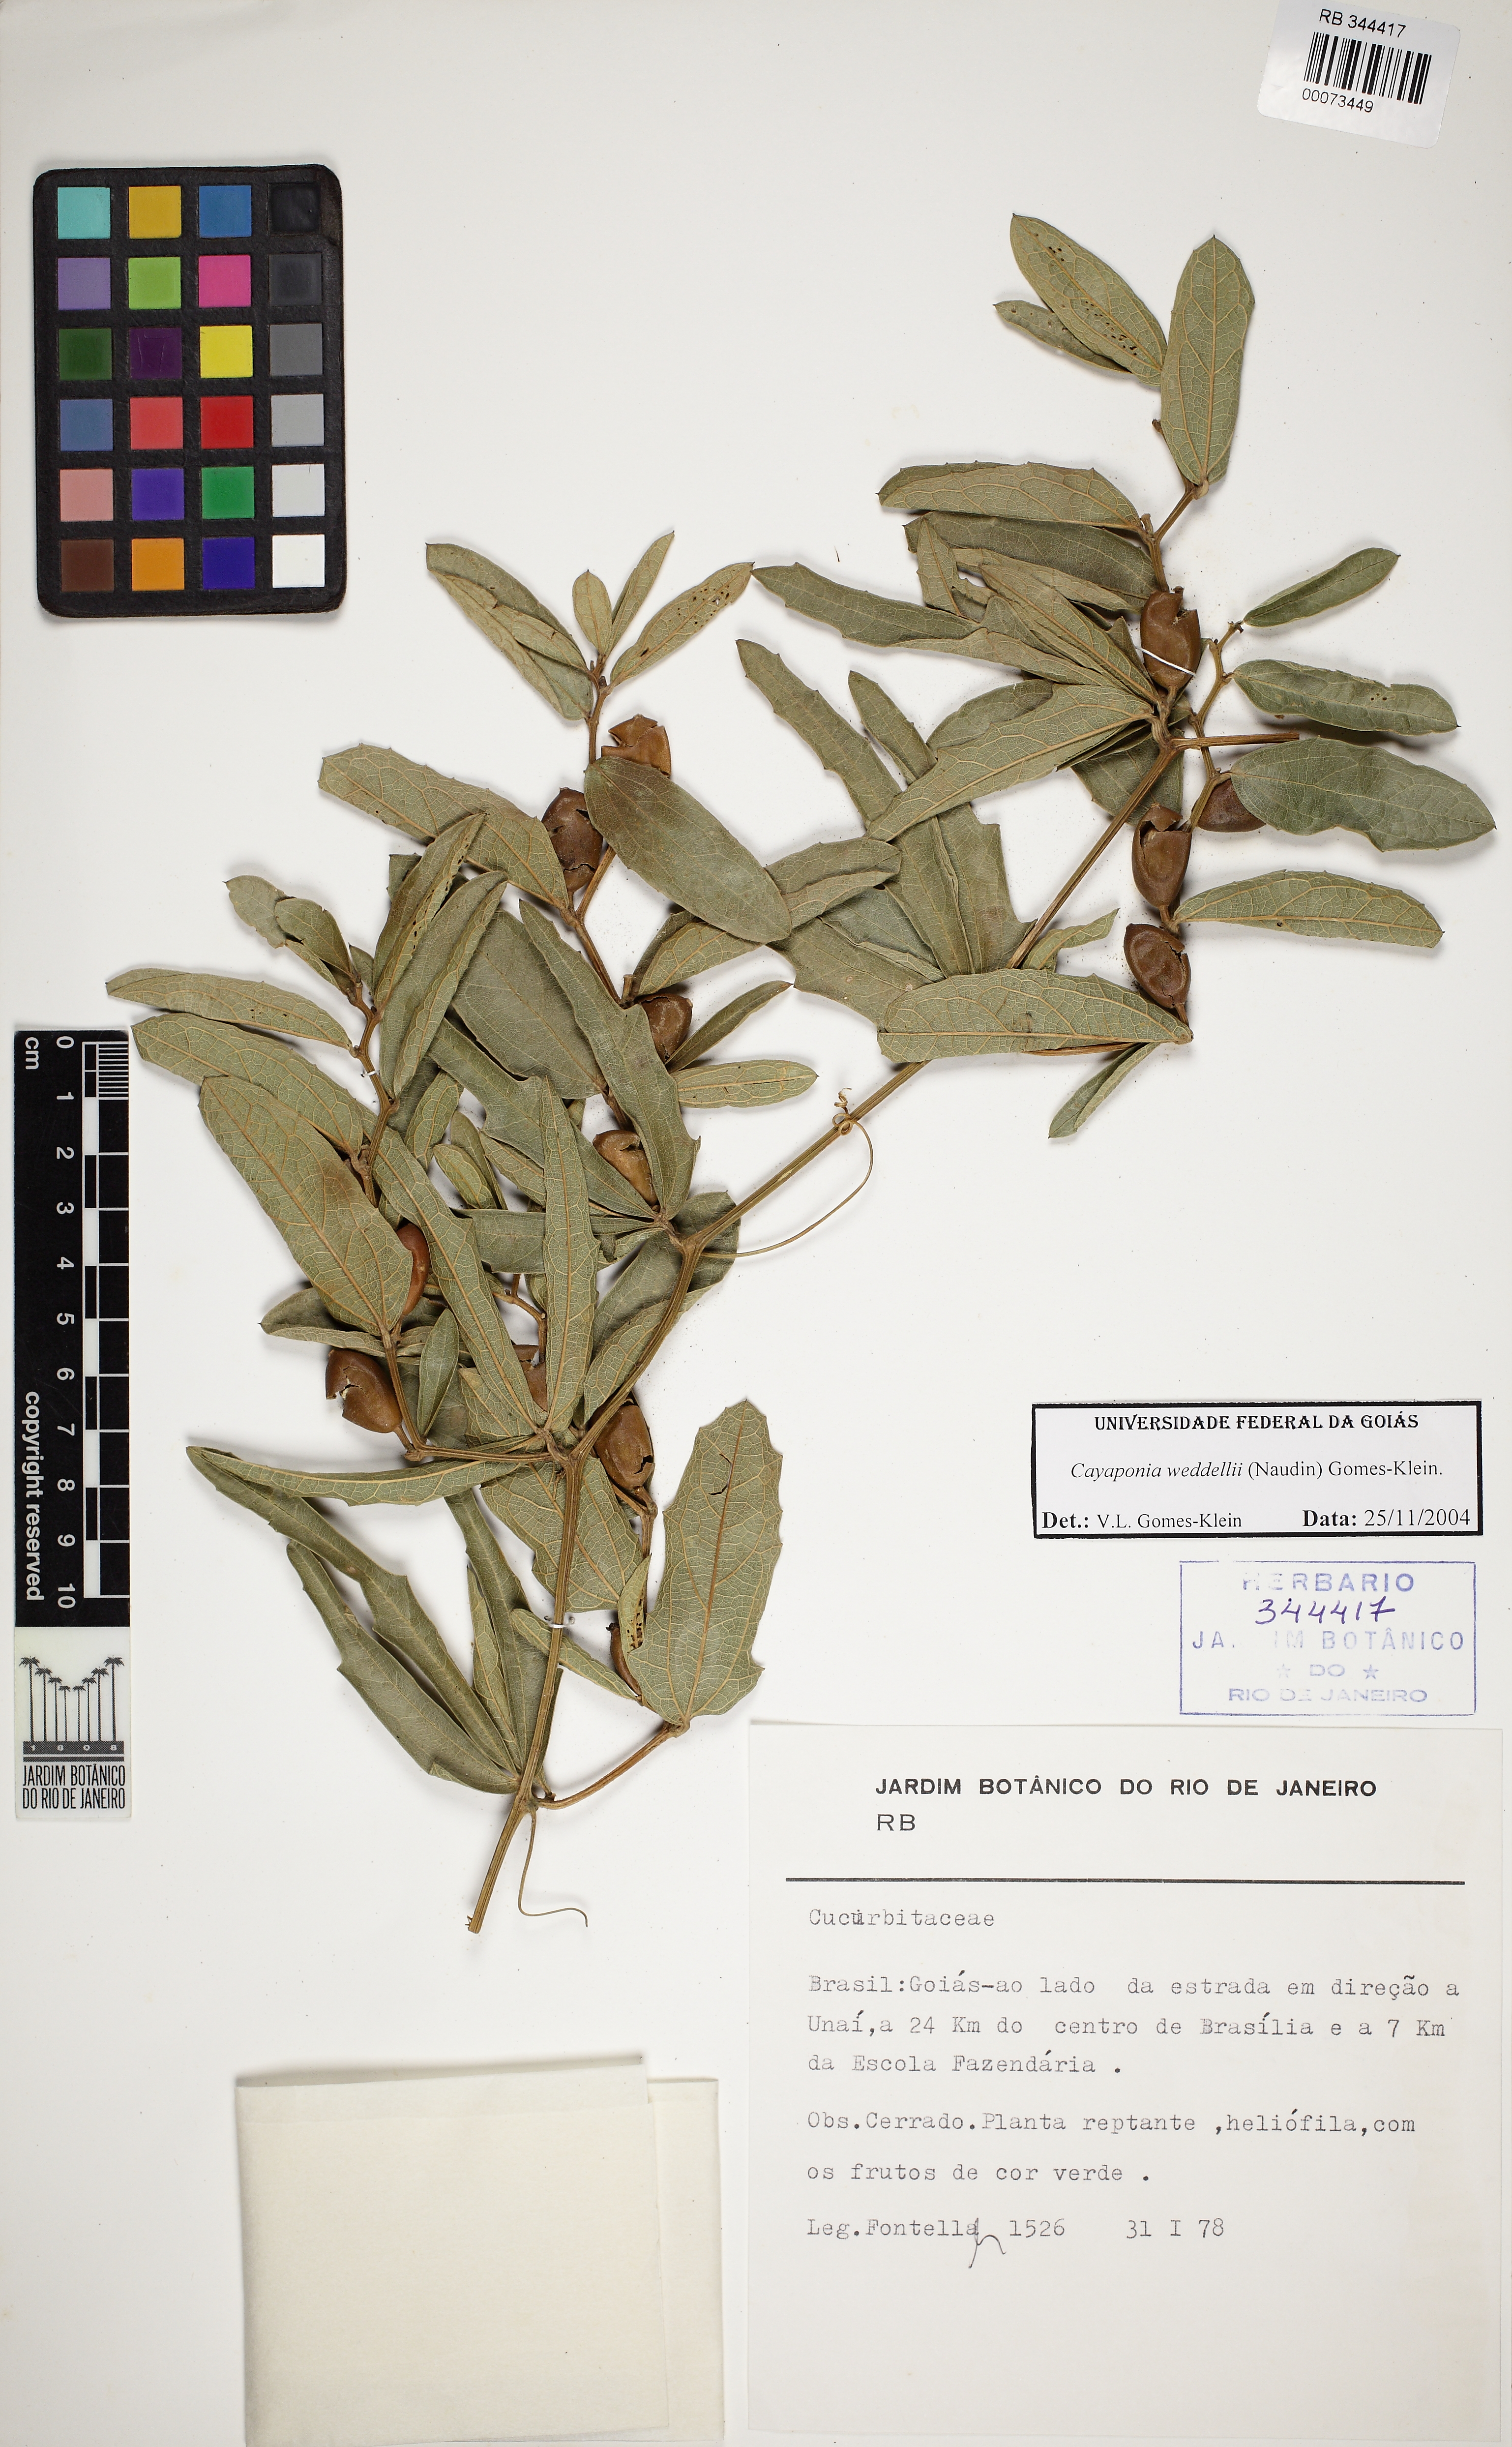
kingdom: Plantae
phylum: Tracheophyta
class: Magnoliopsida
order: Cucurbitales
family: Cucurbitaceae
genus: Cayaponia
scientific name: Cayaponia weddellii
